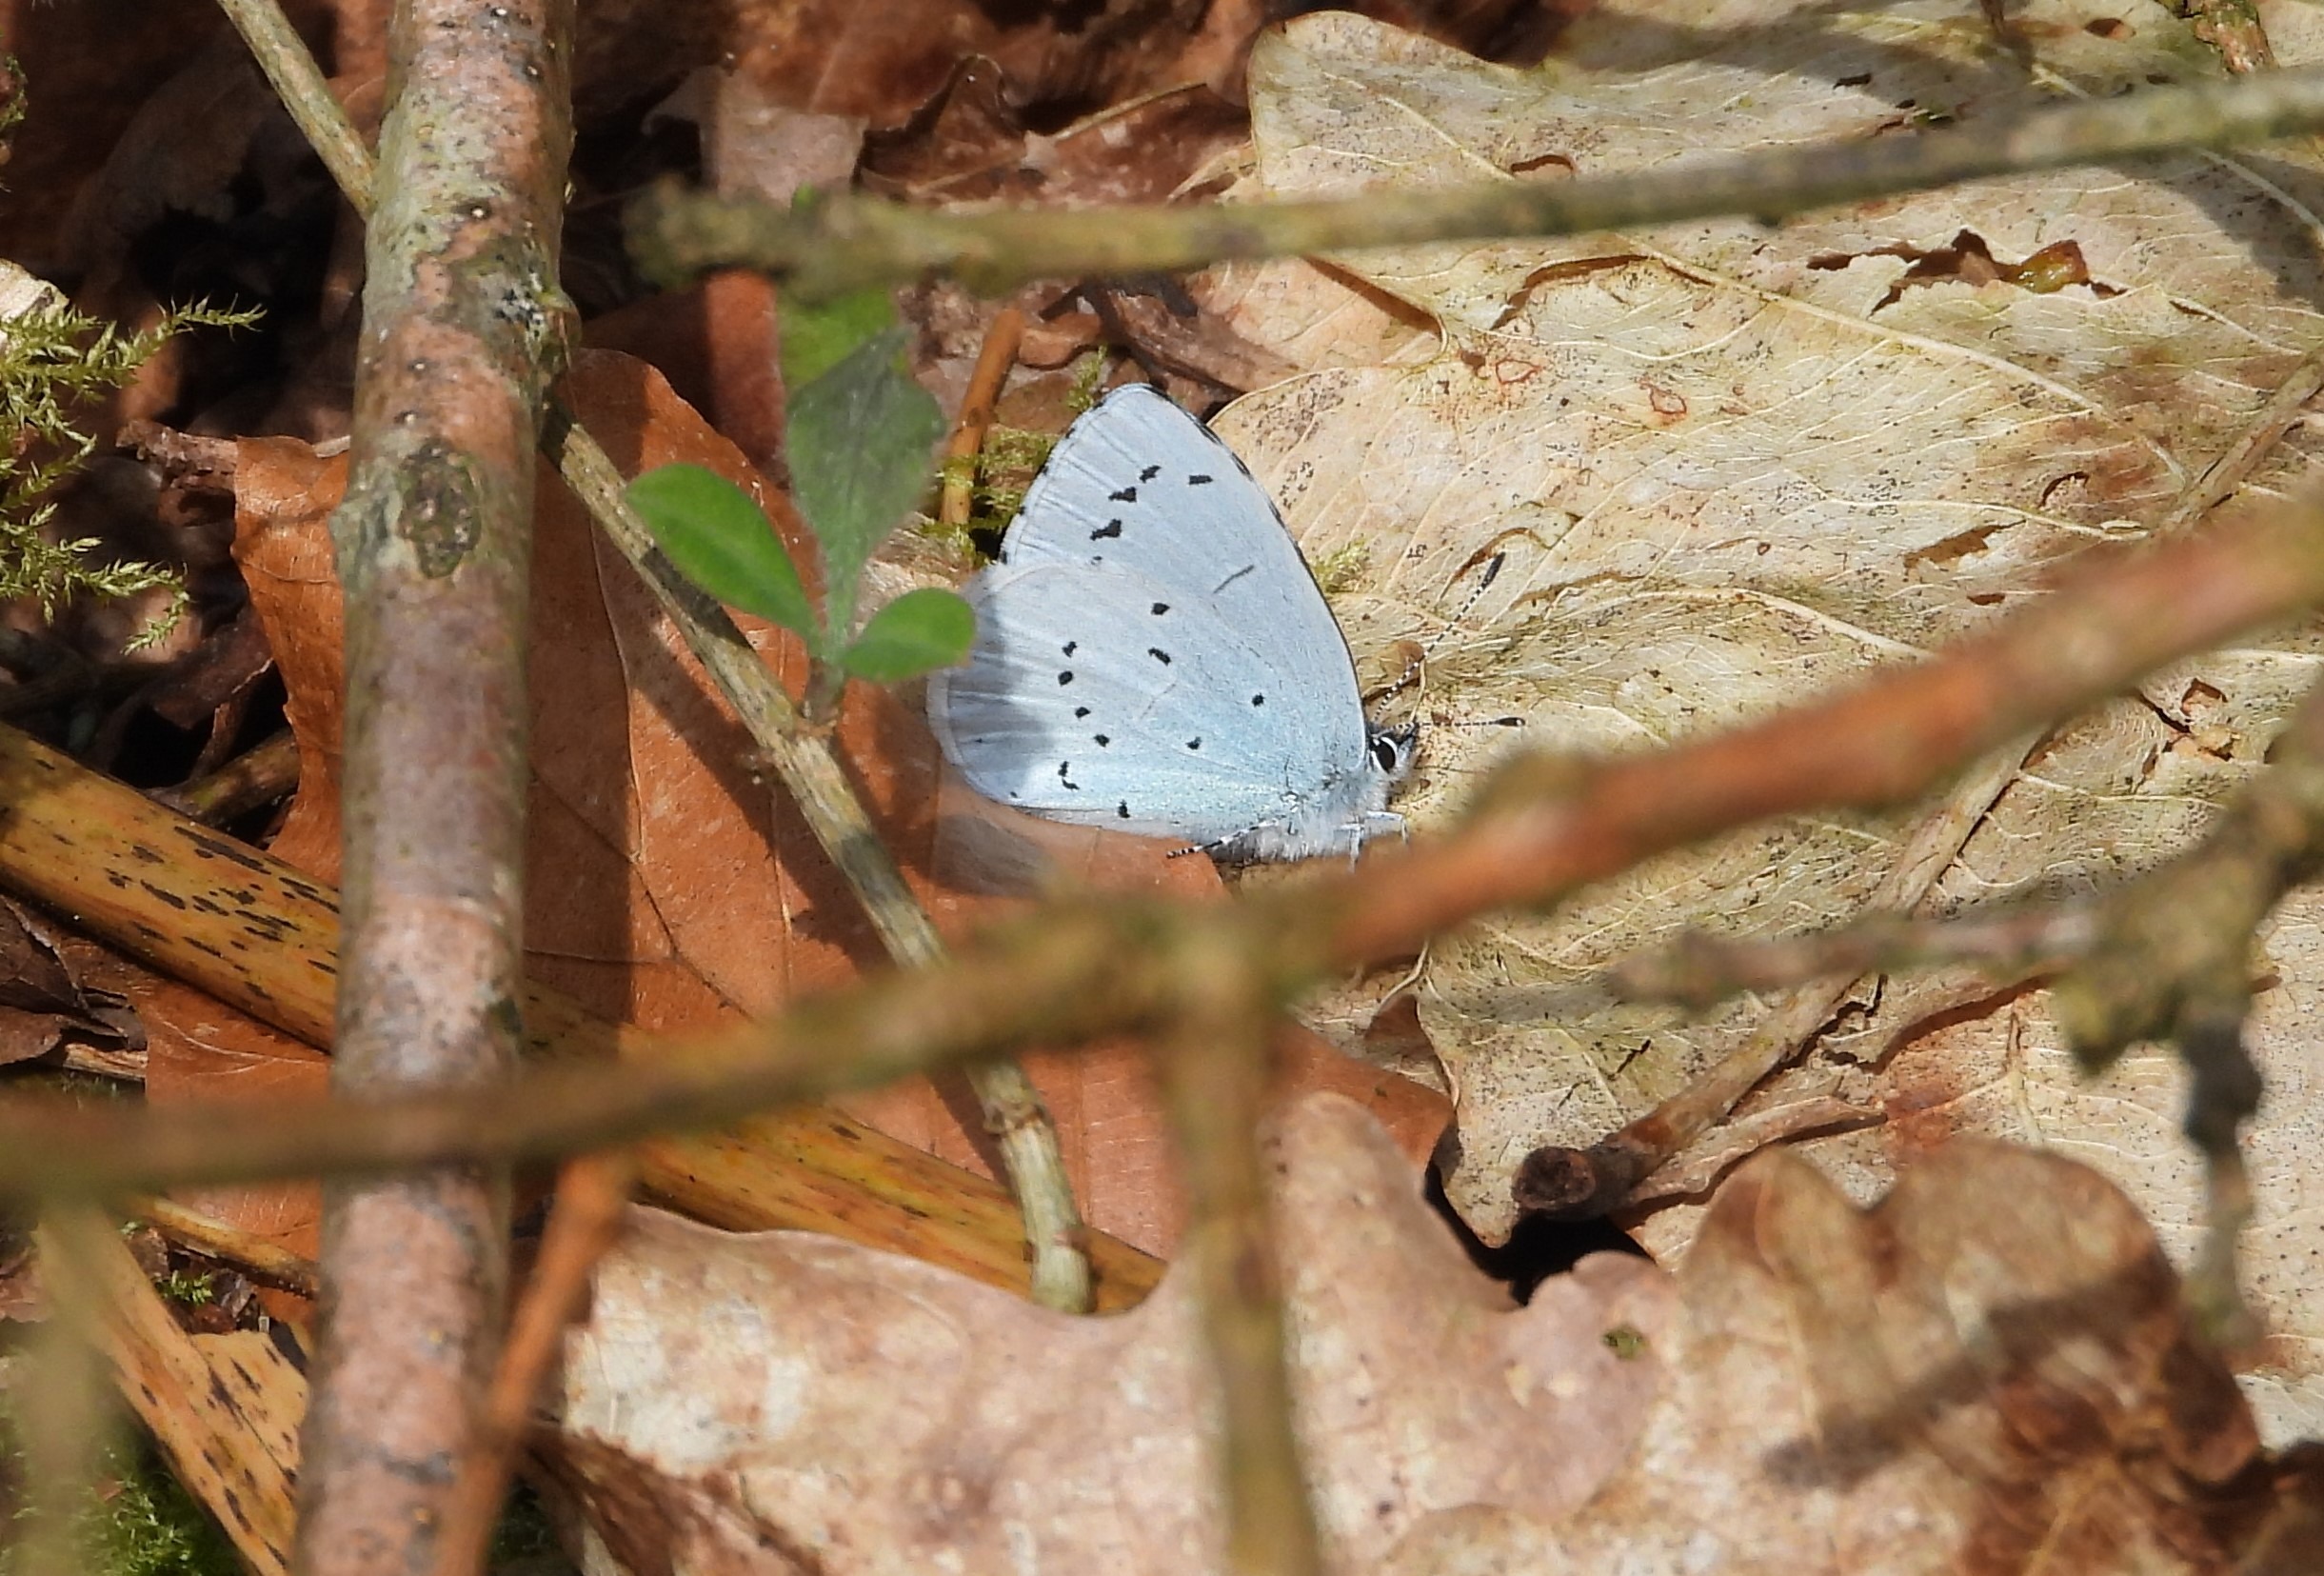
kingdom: Animalia
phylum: Arthropoda
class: Insecta
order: Lepidoptera
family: Lycaenidae
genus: Celastrina
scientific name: Celastrina argiolus
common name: Skovblåfugl
